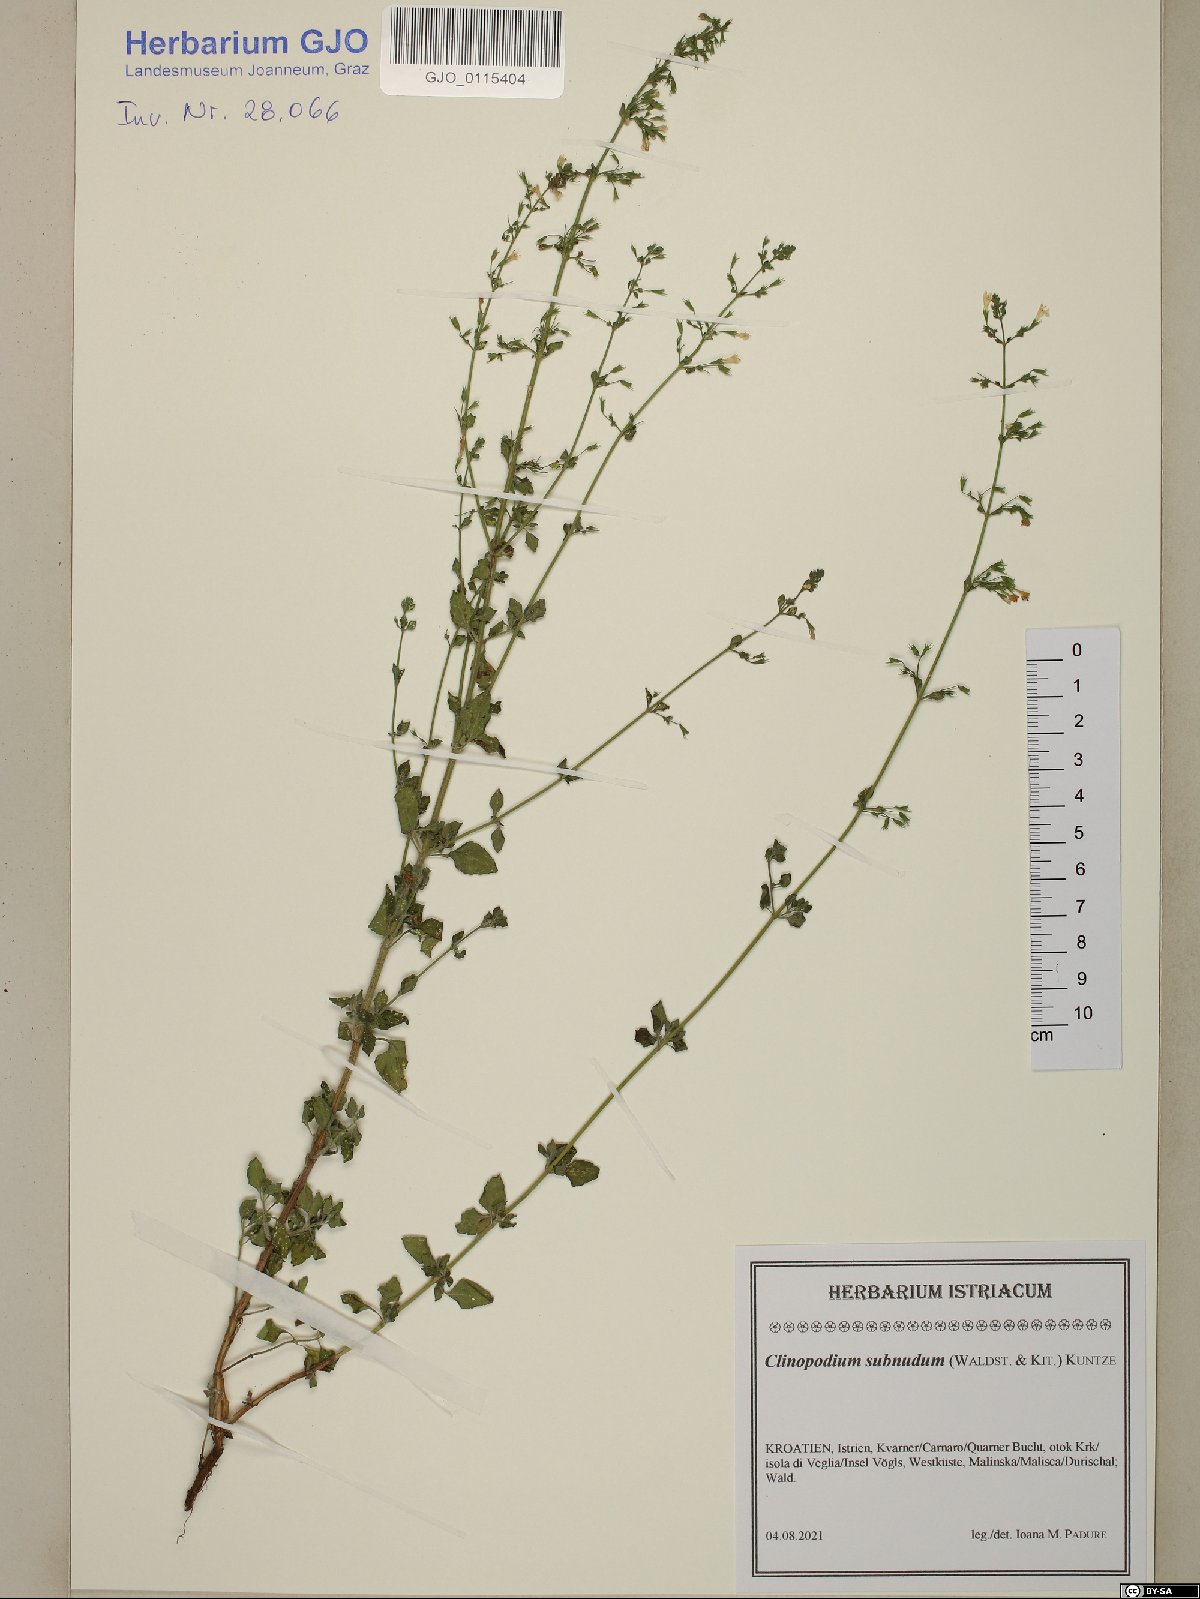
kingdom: Plantae
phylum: Tracheophyta
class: Magnoliopsida
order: Lamiales
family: Lamiaceae
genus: Clinopodium
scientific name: Clinopodium nepeta
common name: Lesser calamint
